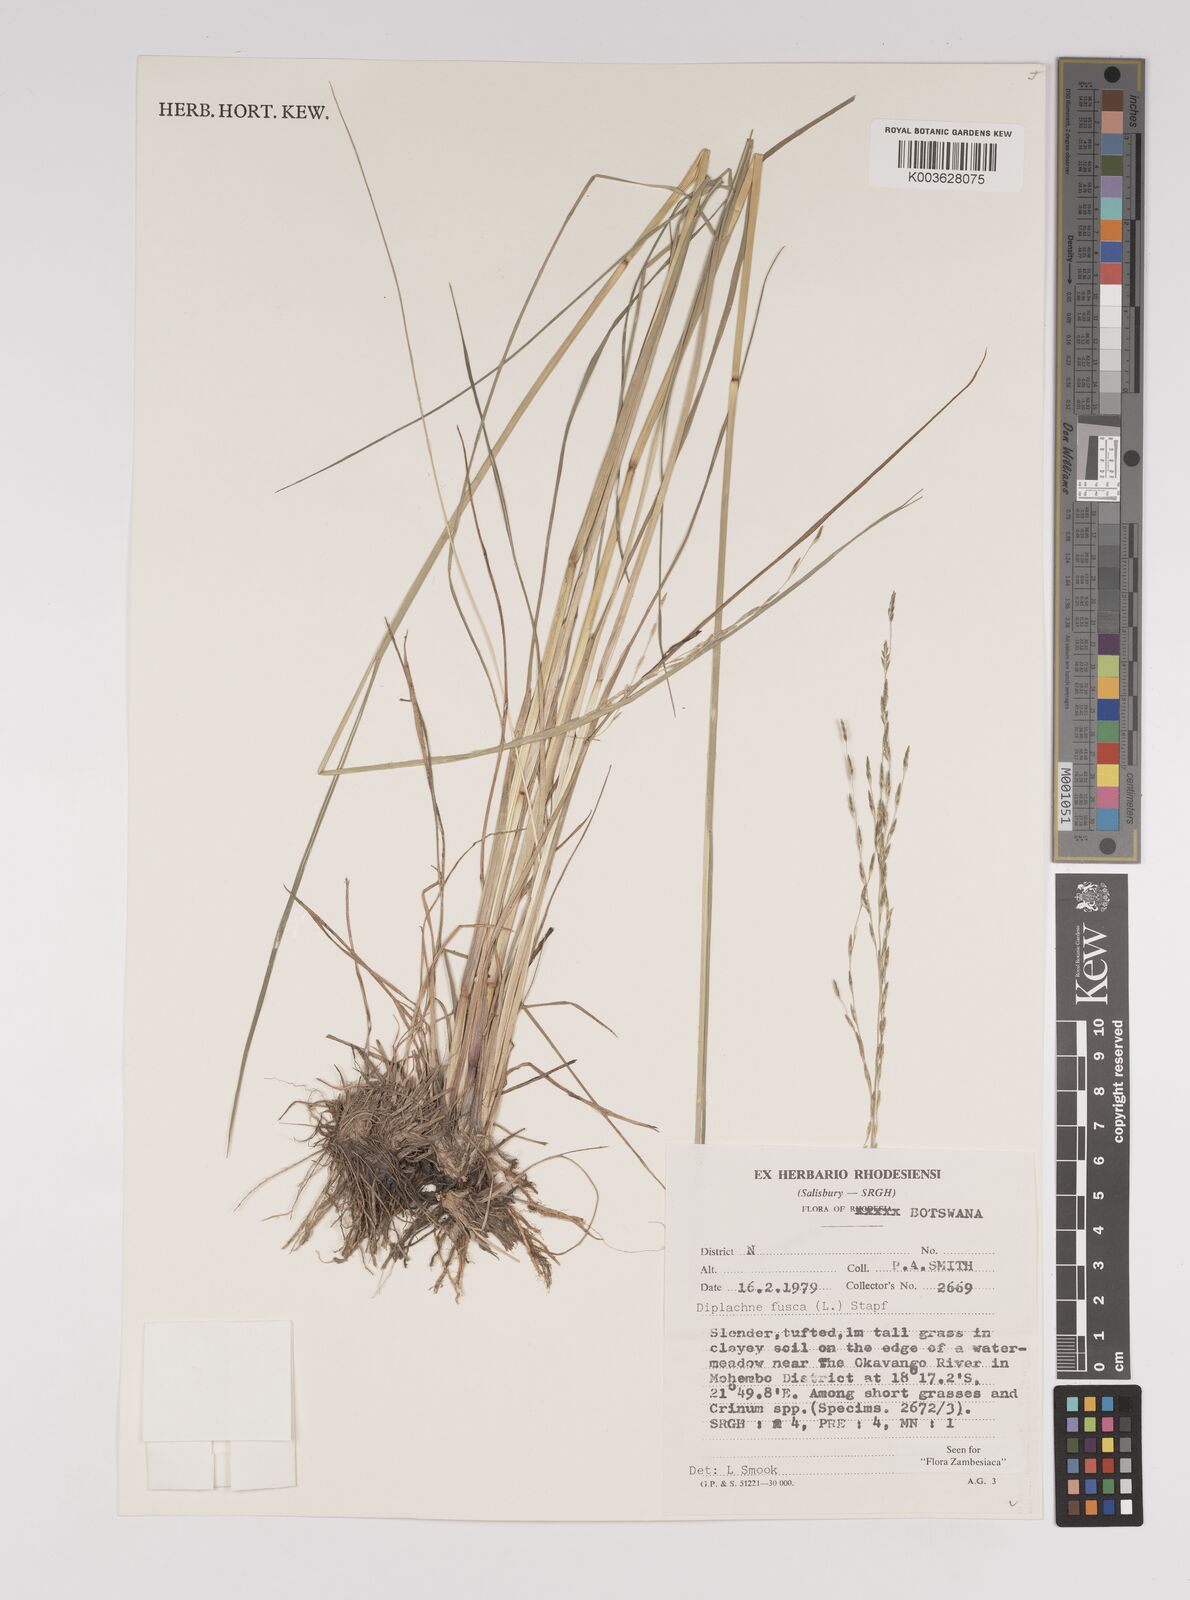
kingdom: Plantae
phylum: Tracheophyta
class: Liliopsida
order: Poales
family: Poaceae
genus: Diplachne
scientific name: Diplachne fusca
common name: Brown beetle grass
